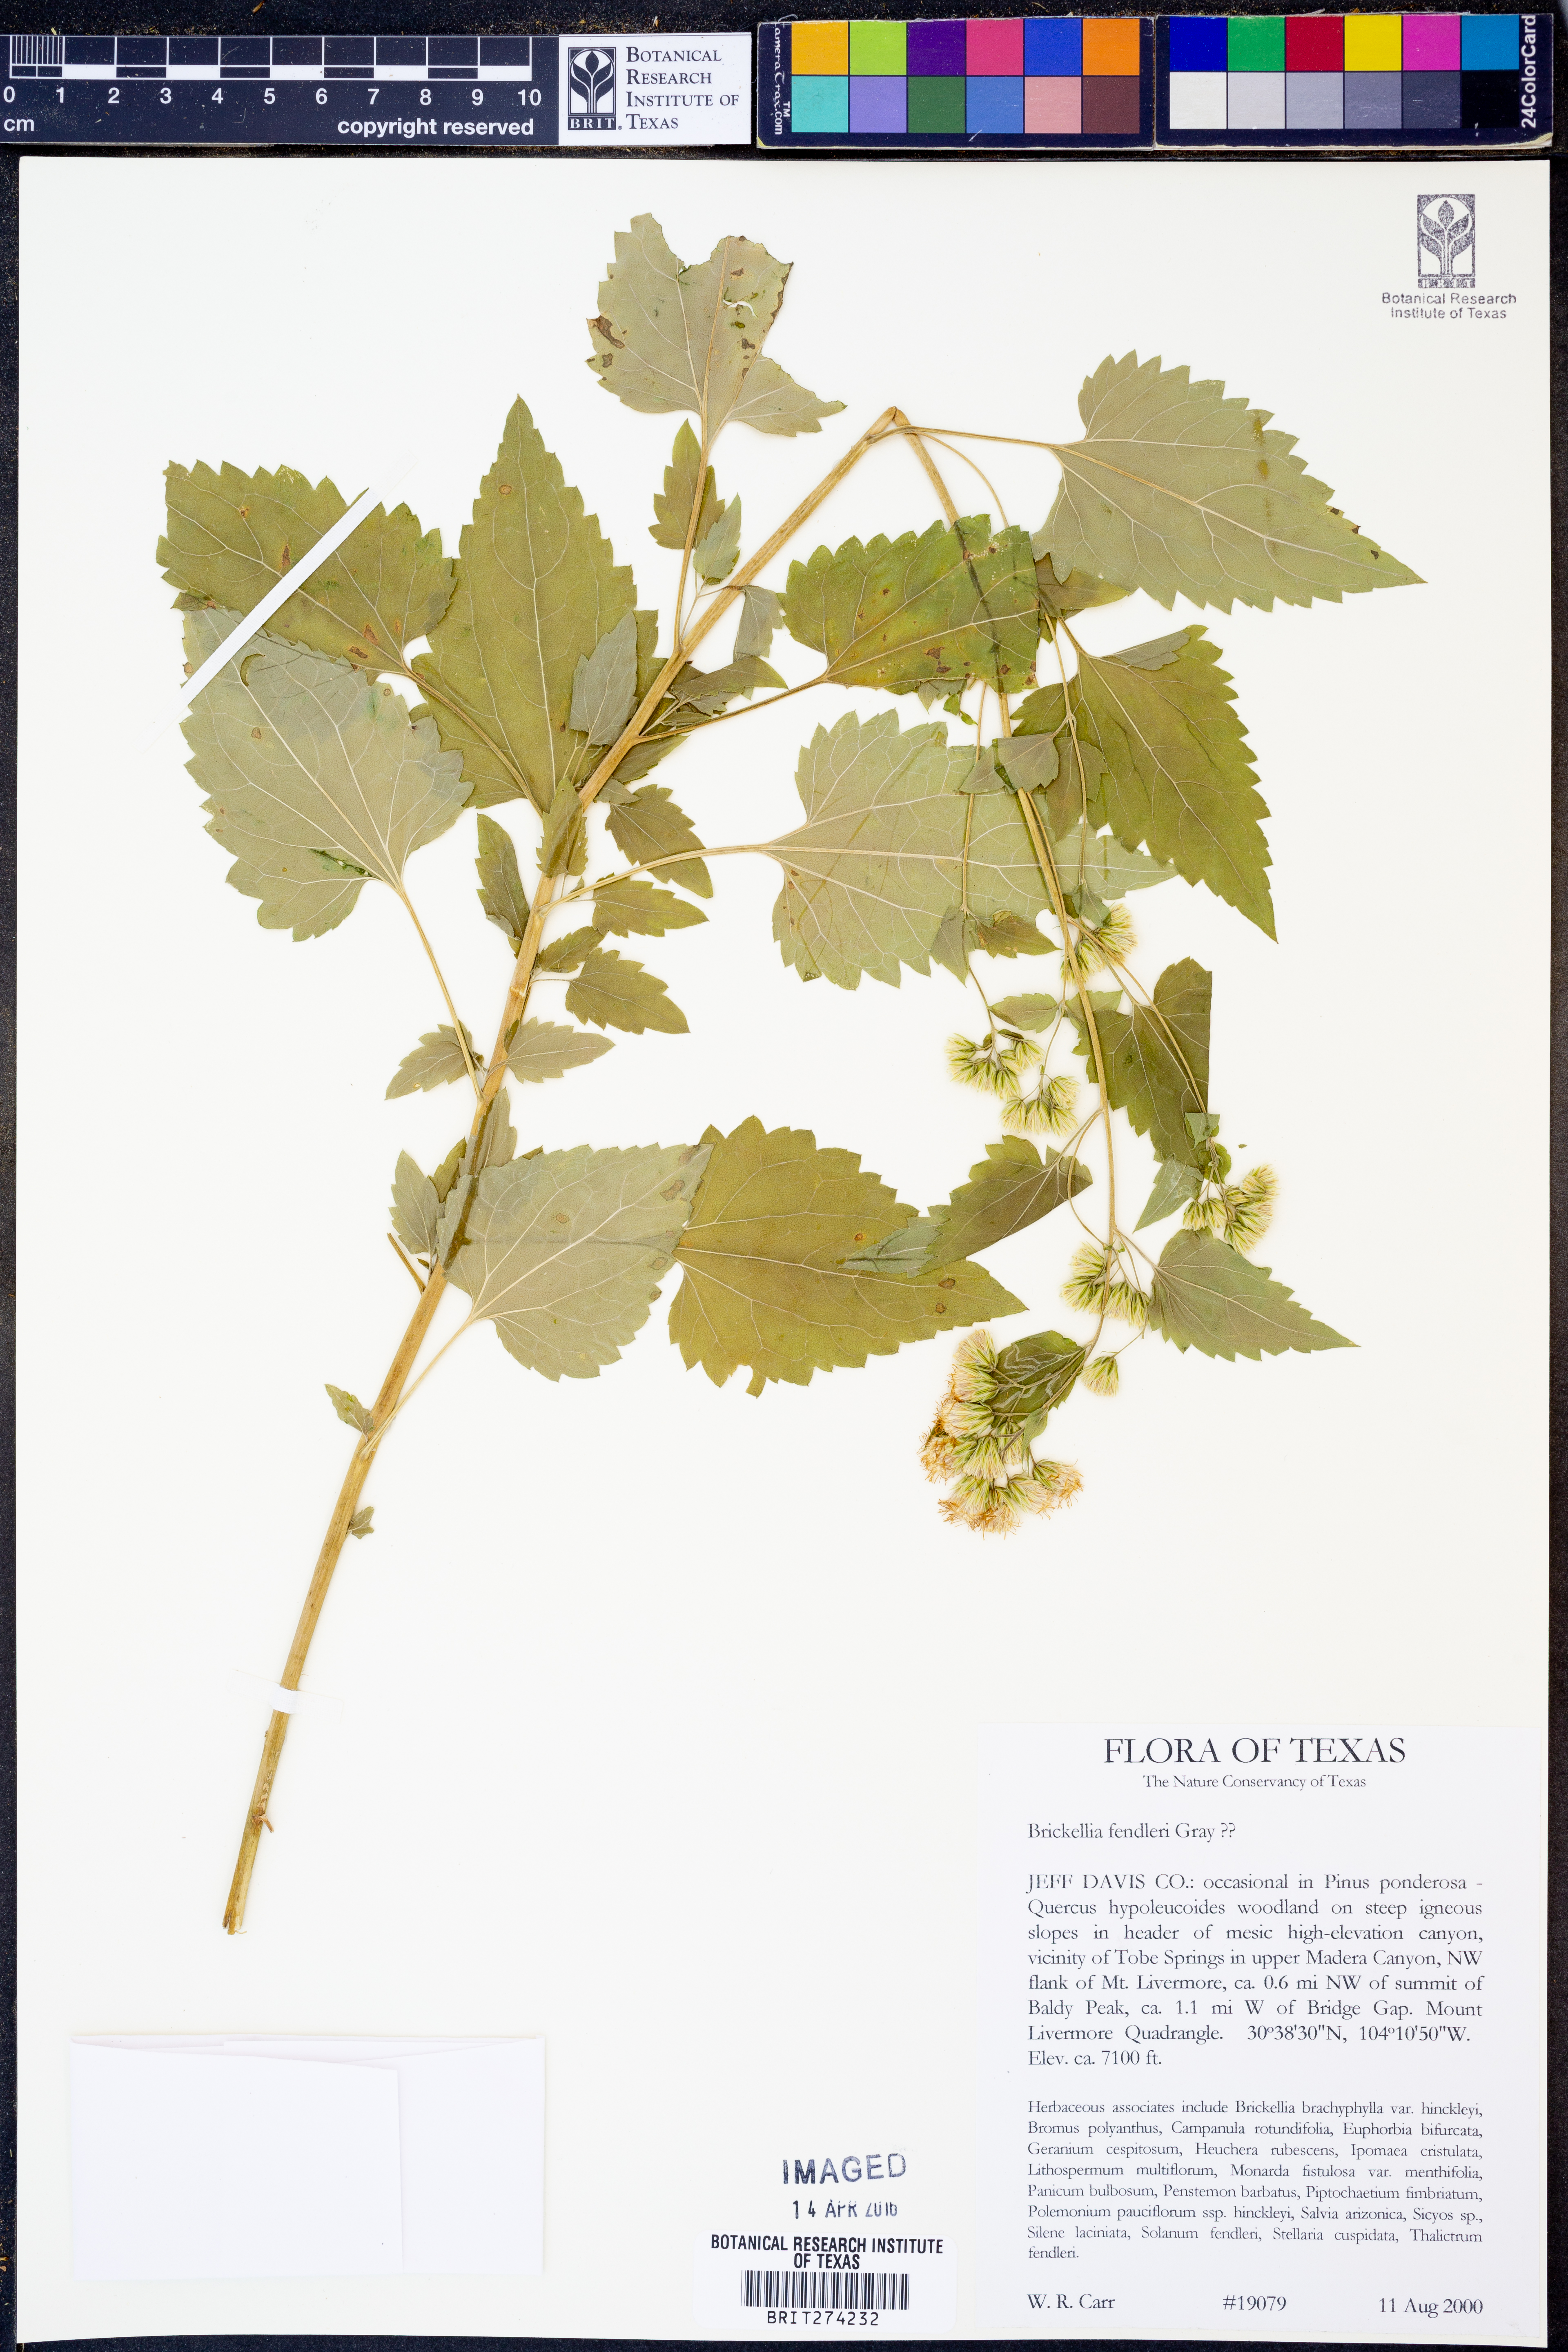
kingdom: Plantae
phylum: Tracheophyta
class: Magnoliopsida
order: Asterales
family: Asteraceae
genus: Brickelliastrum
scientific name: Brickelliastrum fendleri
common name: Fendler's-brickellbush
